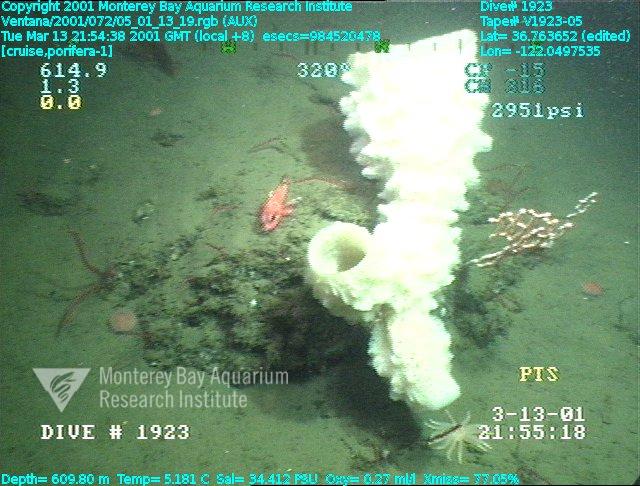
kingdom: Animalia
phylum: Porifera
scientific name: Porifera
